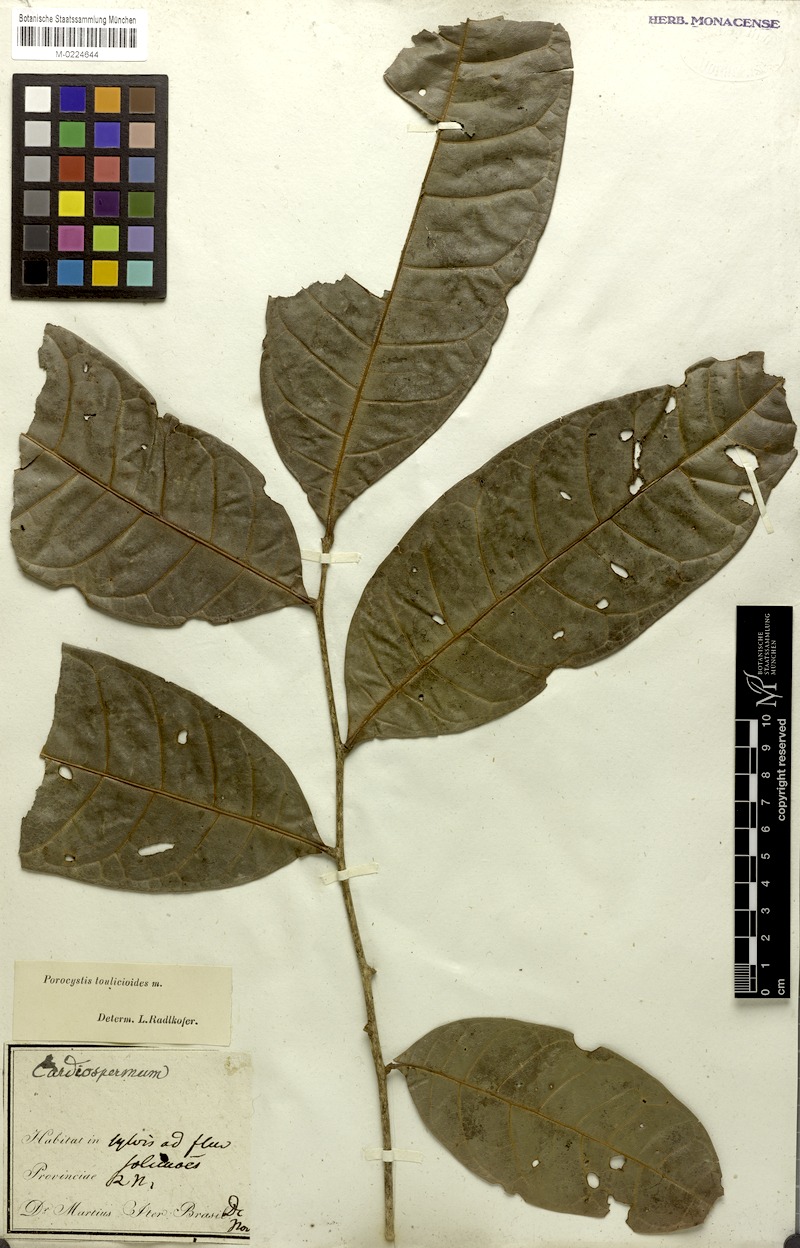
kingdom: Plantae
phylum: Tracheophyta
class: Magnoliopsida
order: Sapindales
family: Sapindaceae
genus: Porocystis
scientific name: Porocystis toulicioides
